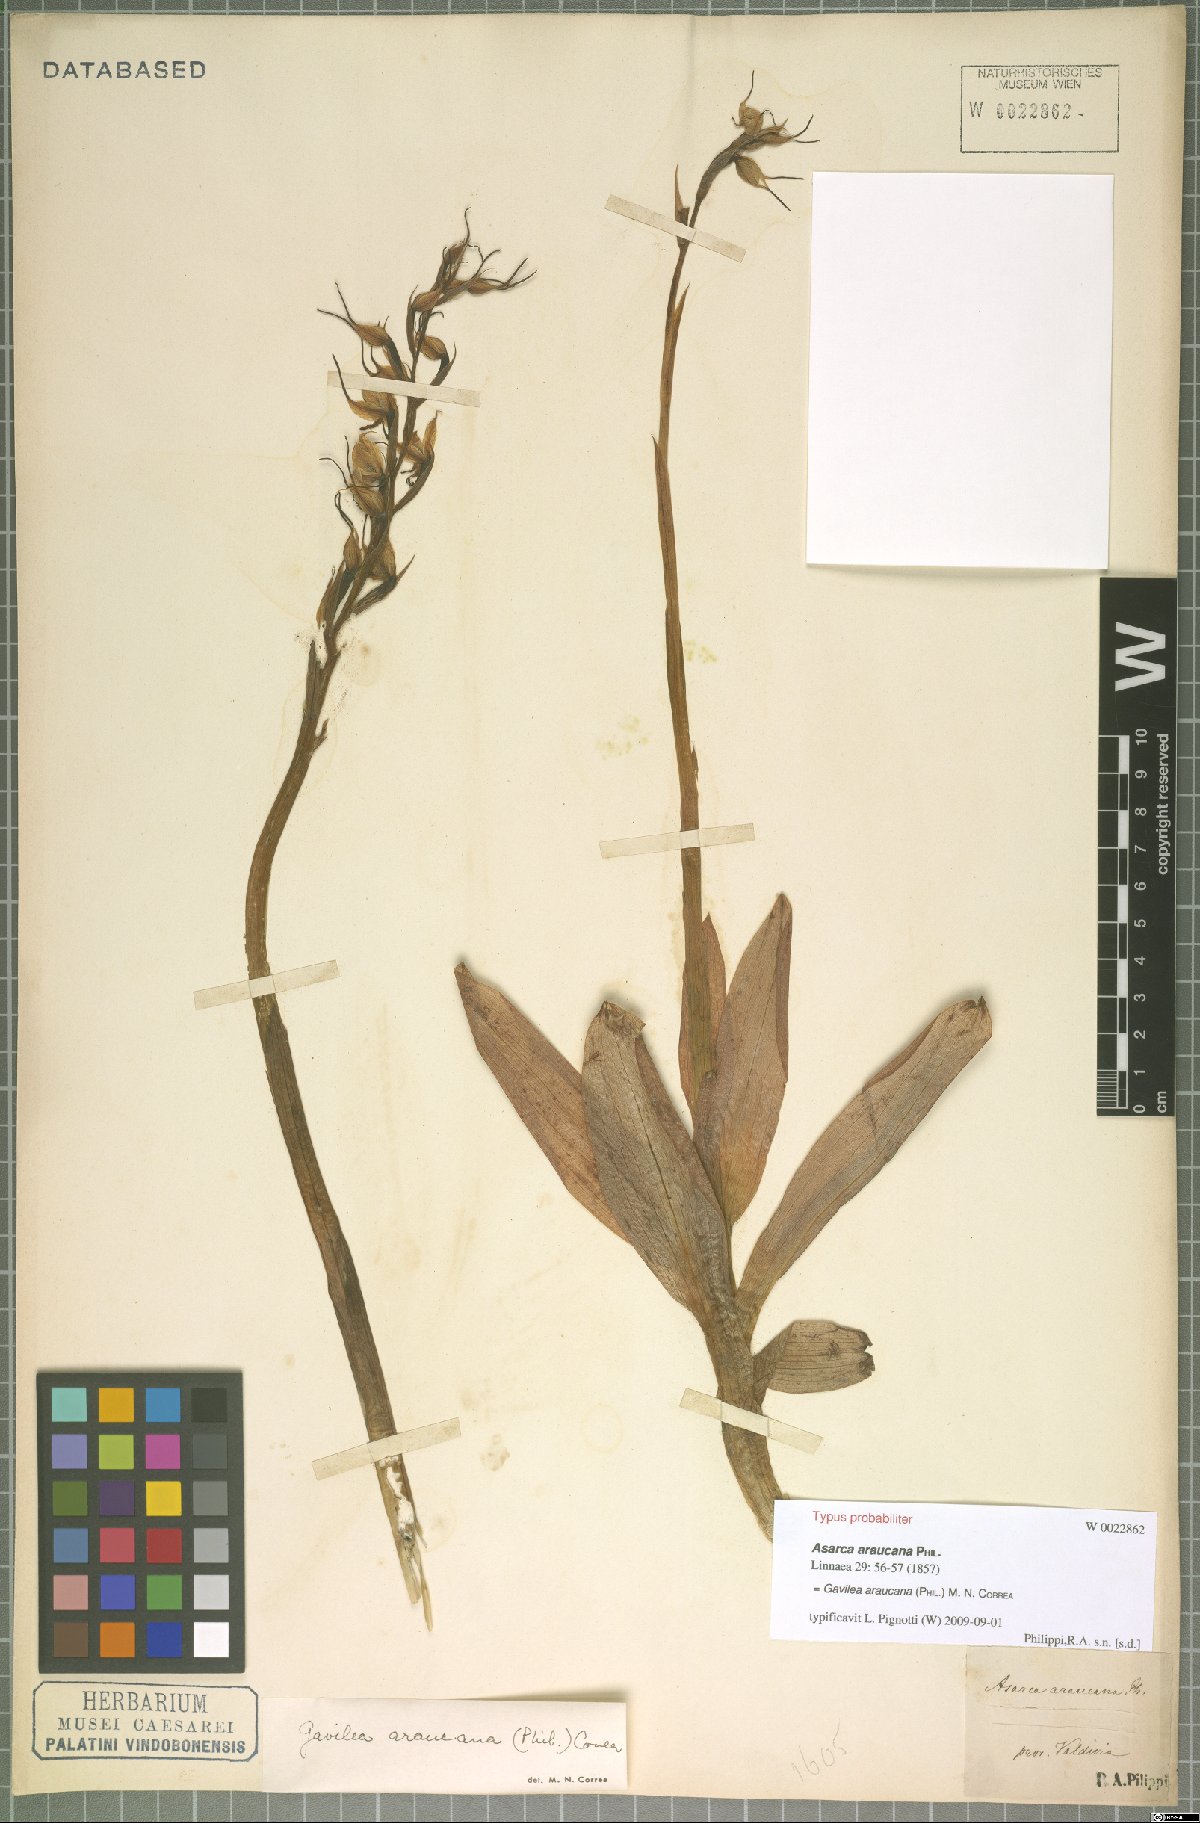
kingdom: Plantae
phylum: Tracheophyta
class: Liliopsida
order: Asparagales
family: Orchidaceae
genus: Gavilea
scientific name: Gavilea araucana
